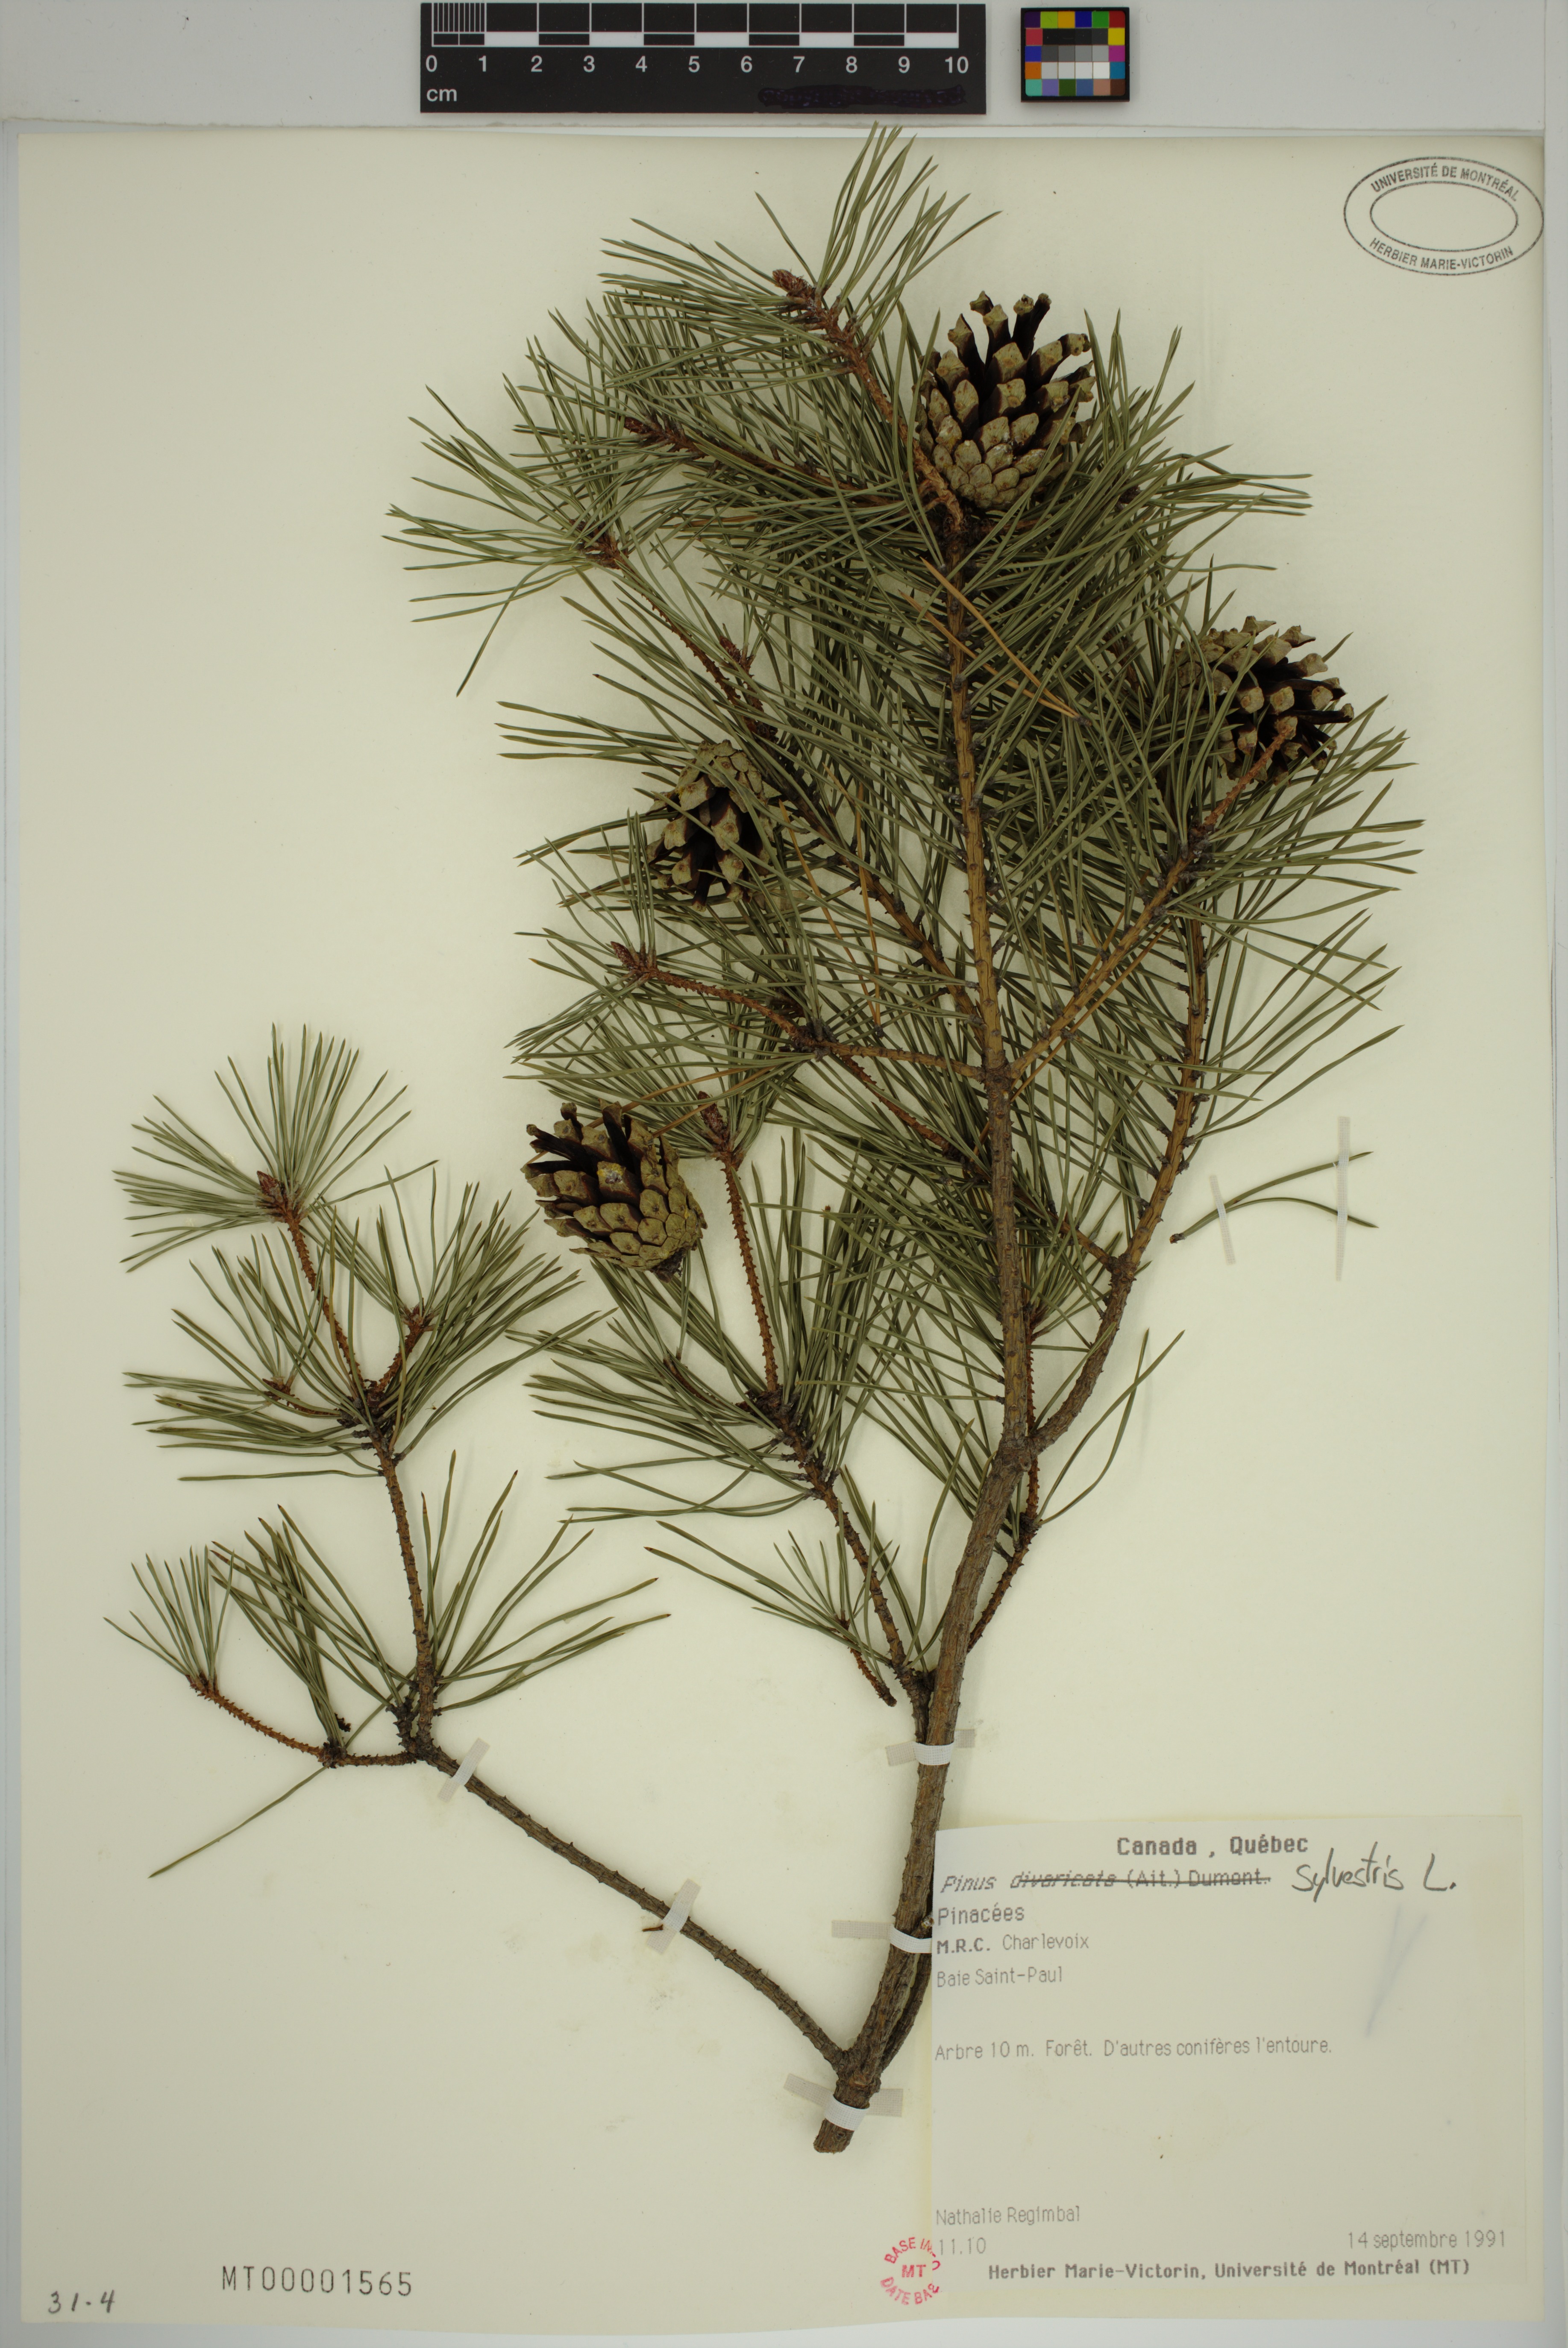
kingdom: Plantae
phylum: Tracheophyta
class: Pinopsida
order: Pinales
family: Pinaceae
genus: Pinus
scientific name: Pinus sylvestris
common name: Scots pine
